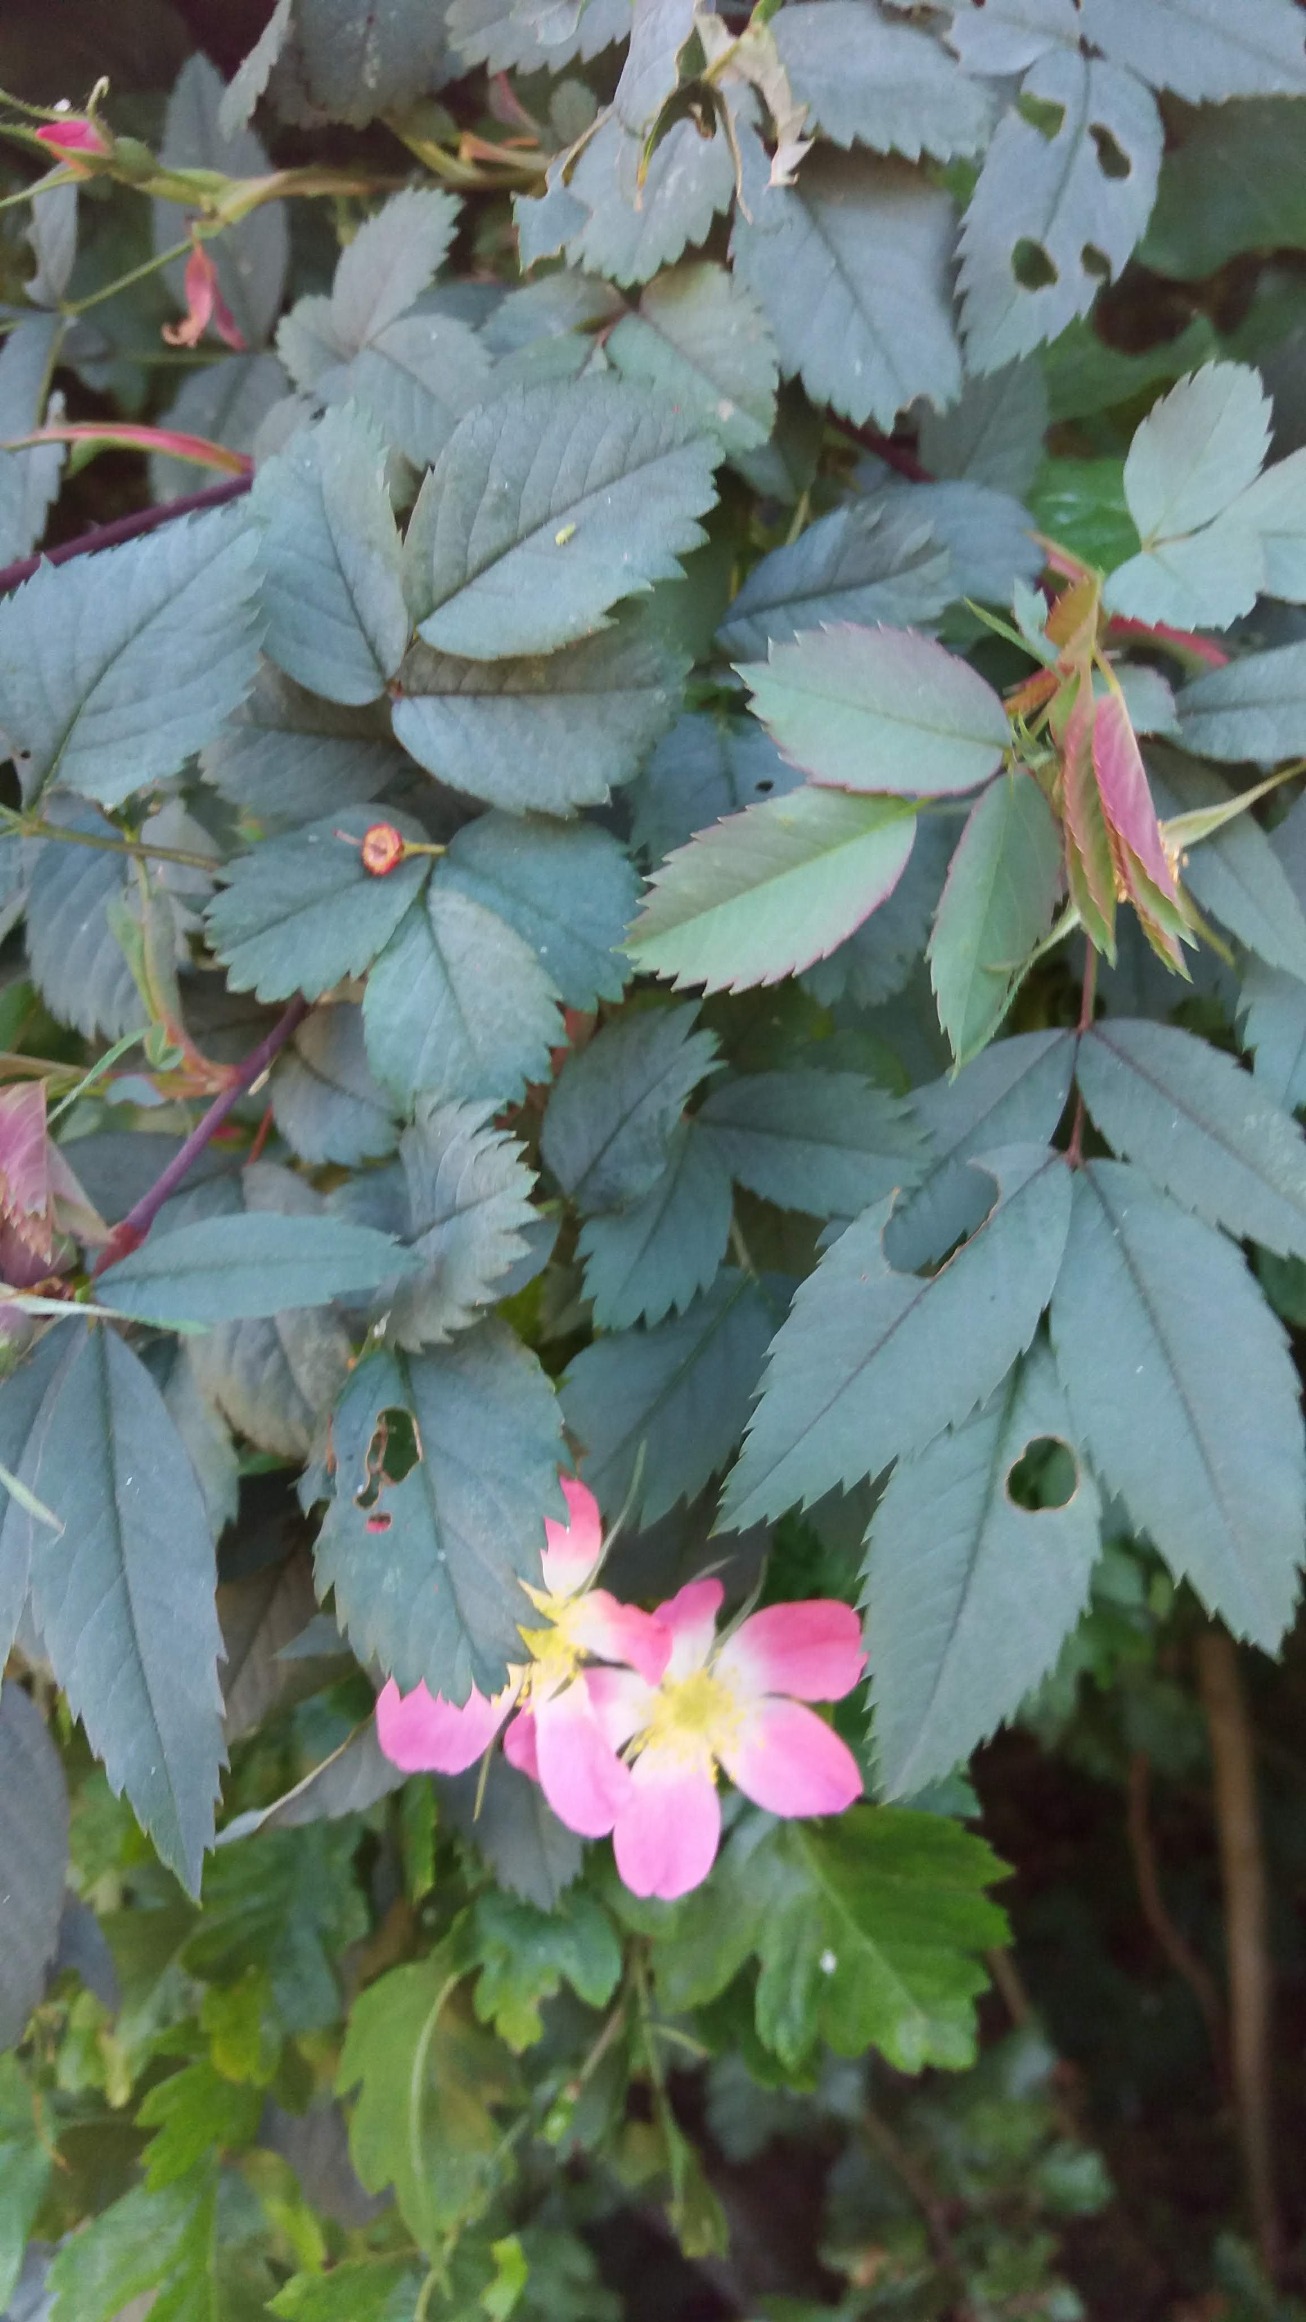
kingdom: Plantae
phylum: Tracheophyta
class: Magnoliopsida
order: Rosales
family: Rosaceae
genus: Rosa
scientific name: Rosa glauca
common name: Kobber-rose
